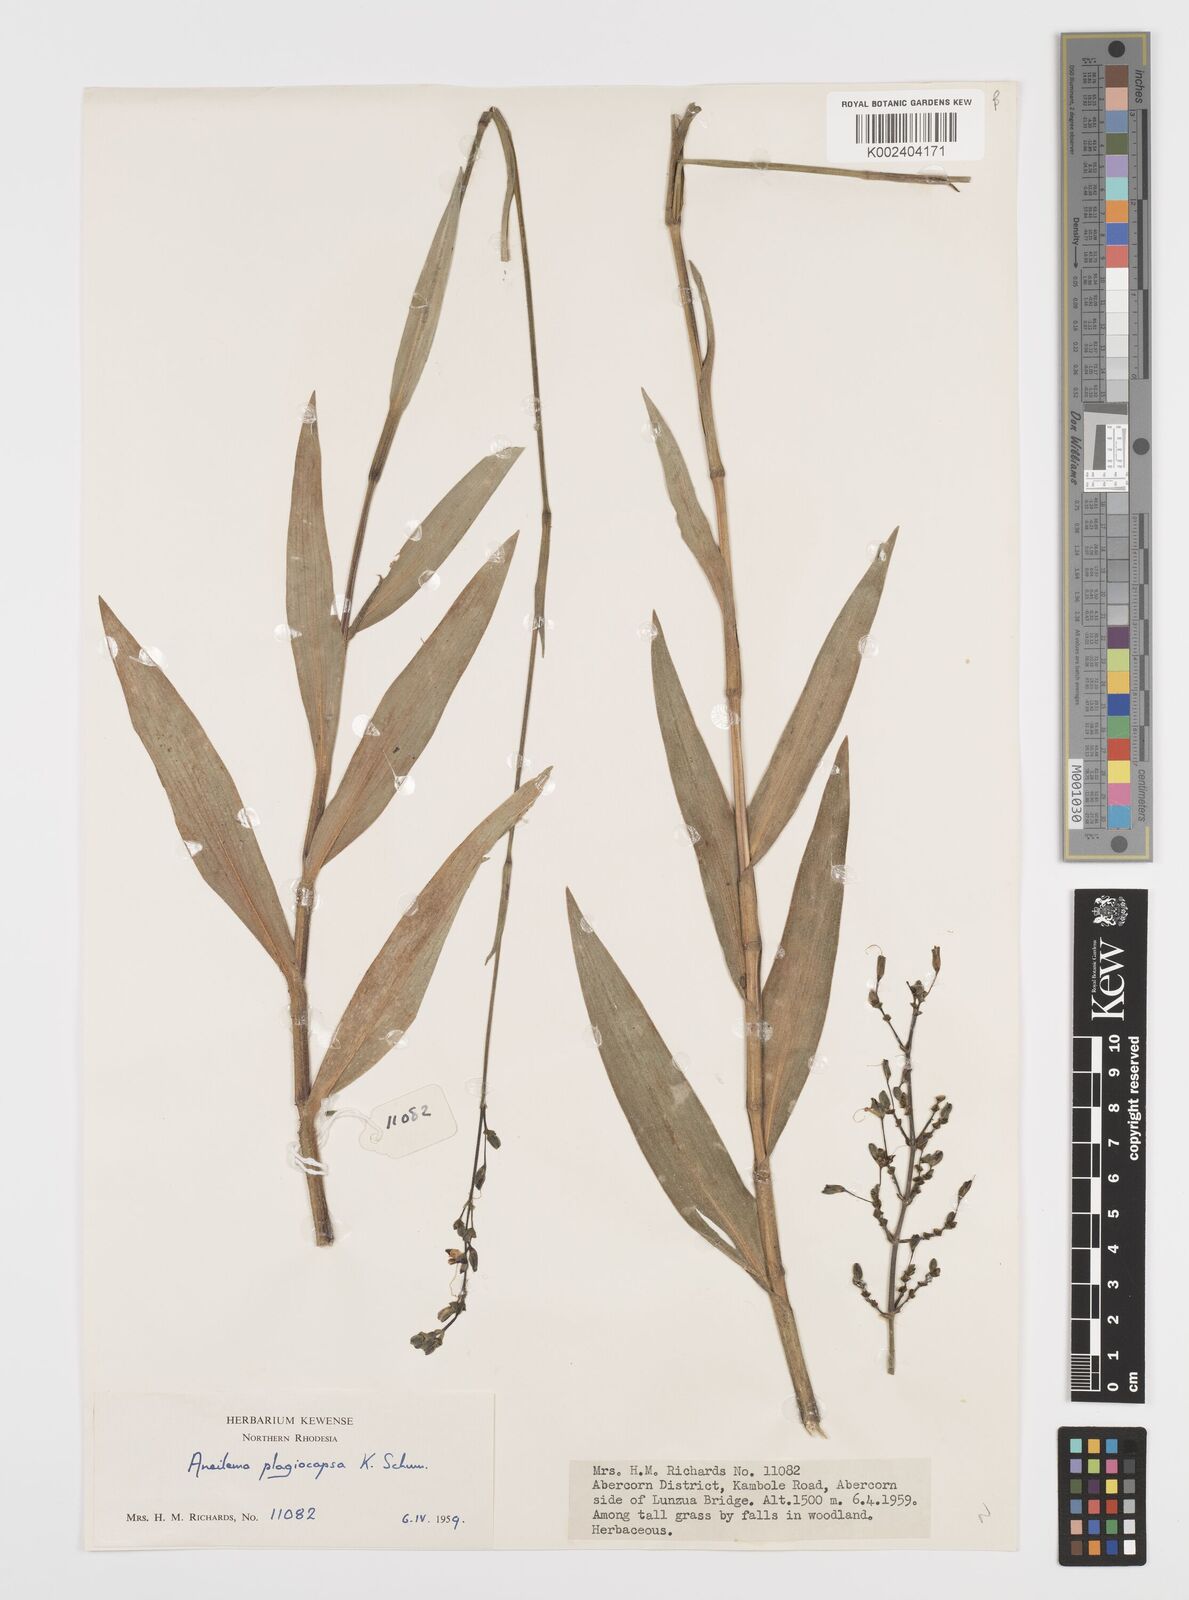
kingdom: Plantae
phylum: Tracheophyta
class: Liliopsida
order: Commelinales
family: Commelinaceae
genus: Aneilema
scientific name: Aneilema plagiocapsa
